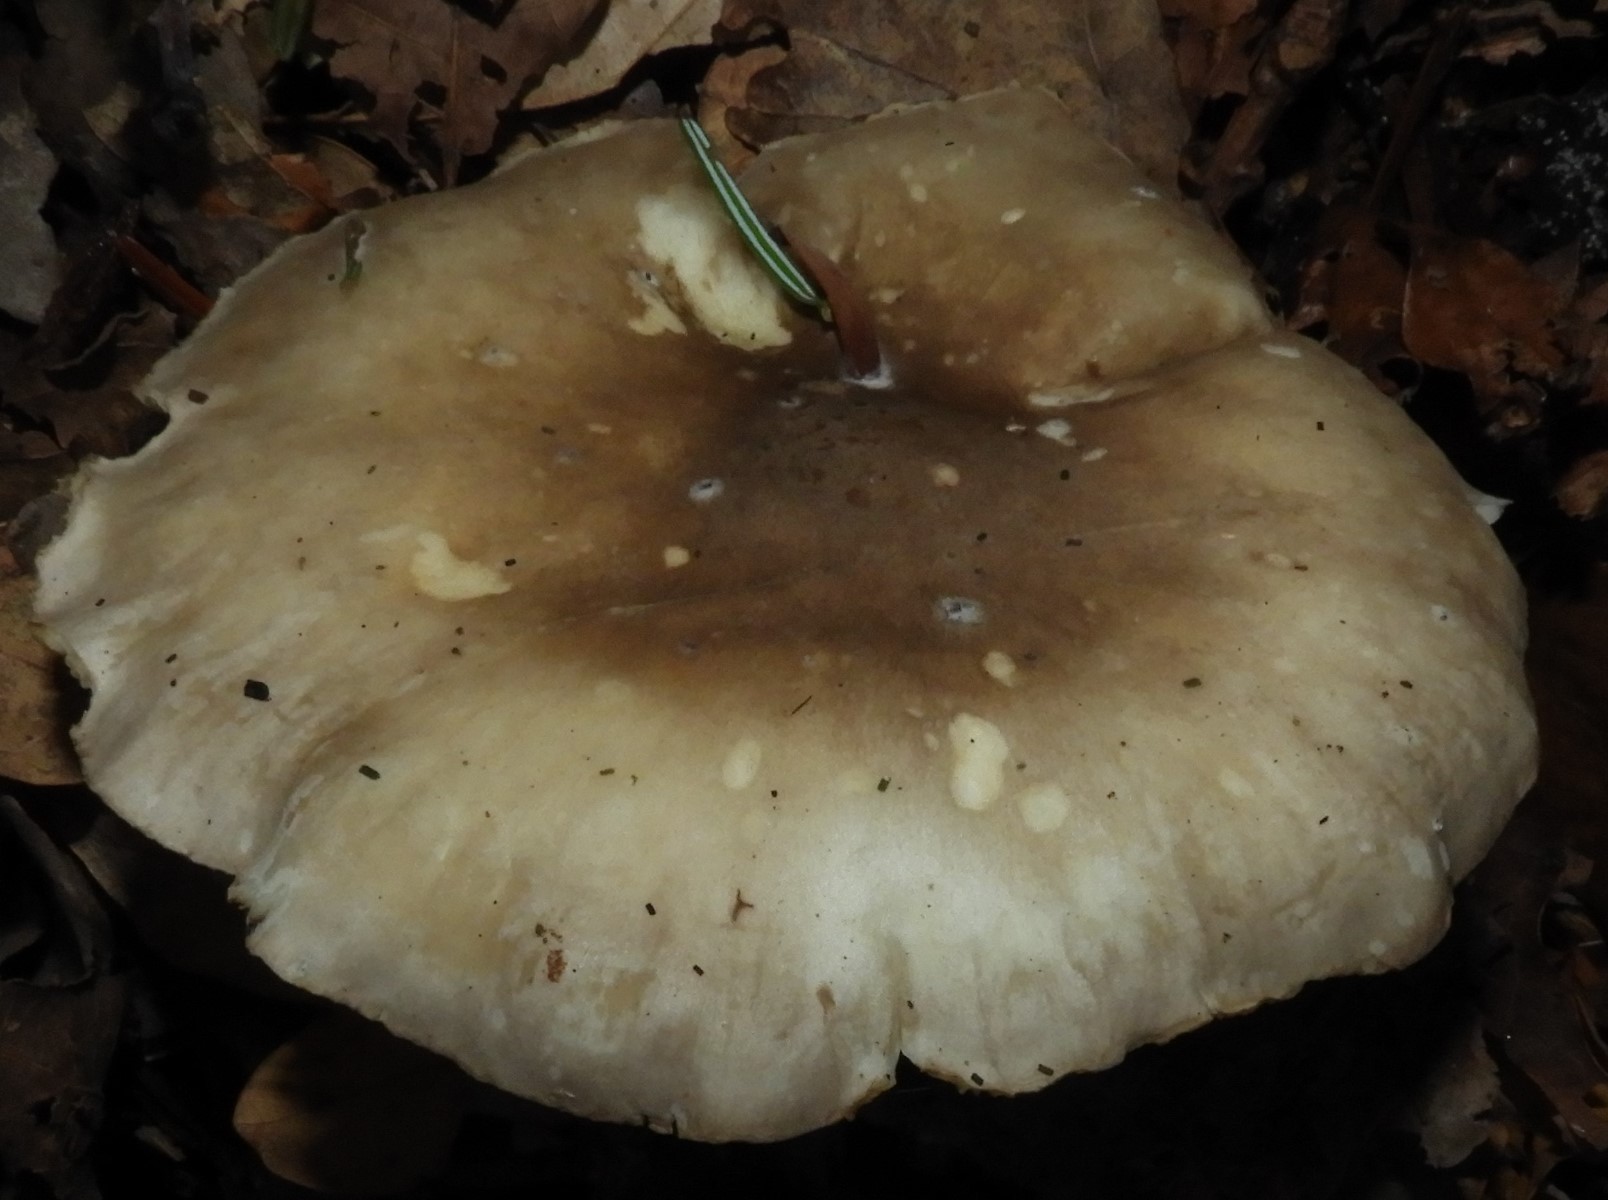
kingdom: Fungi
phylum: Basidiomycota
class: Agaricomycetes
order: Agaricales
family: Tricholomataceae
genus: Clitocybe
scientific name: Clitocybe nebularis
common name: tåge-tragthat
